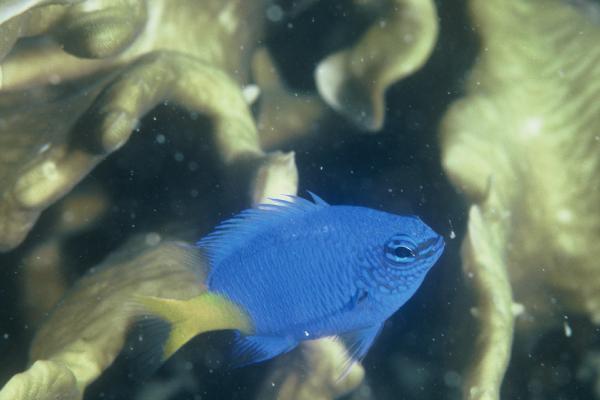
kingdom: Animalia
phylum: Chordata
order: Perciformes
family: Pomacentridae
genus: Chrysiptera
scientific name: Chrysiptera hemicyanea
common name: Azure demoiselle
